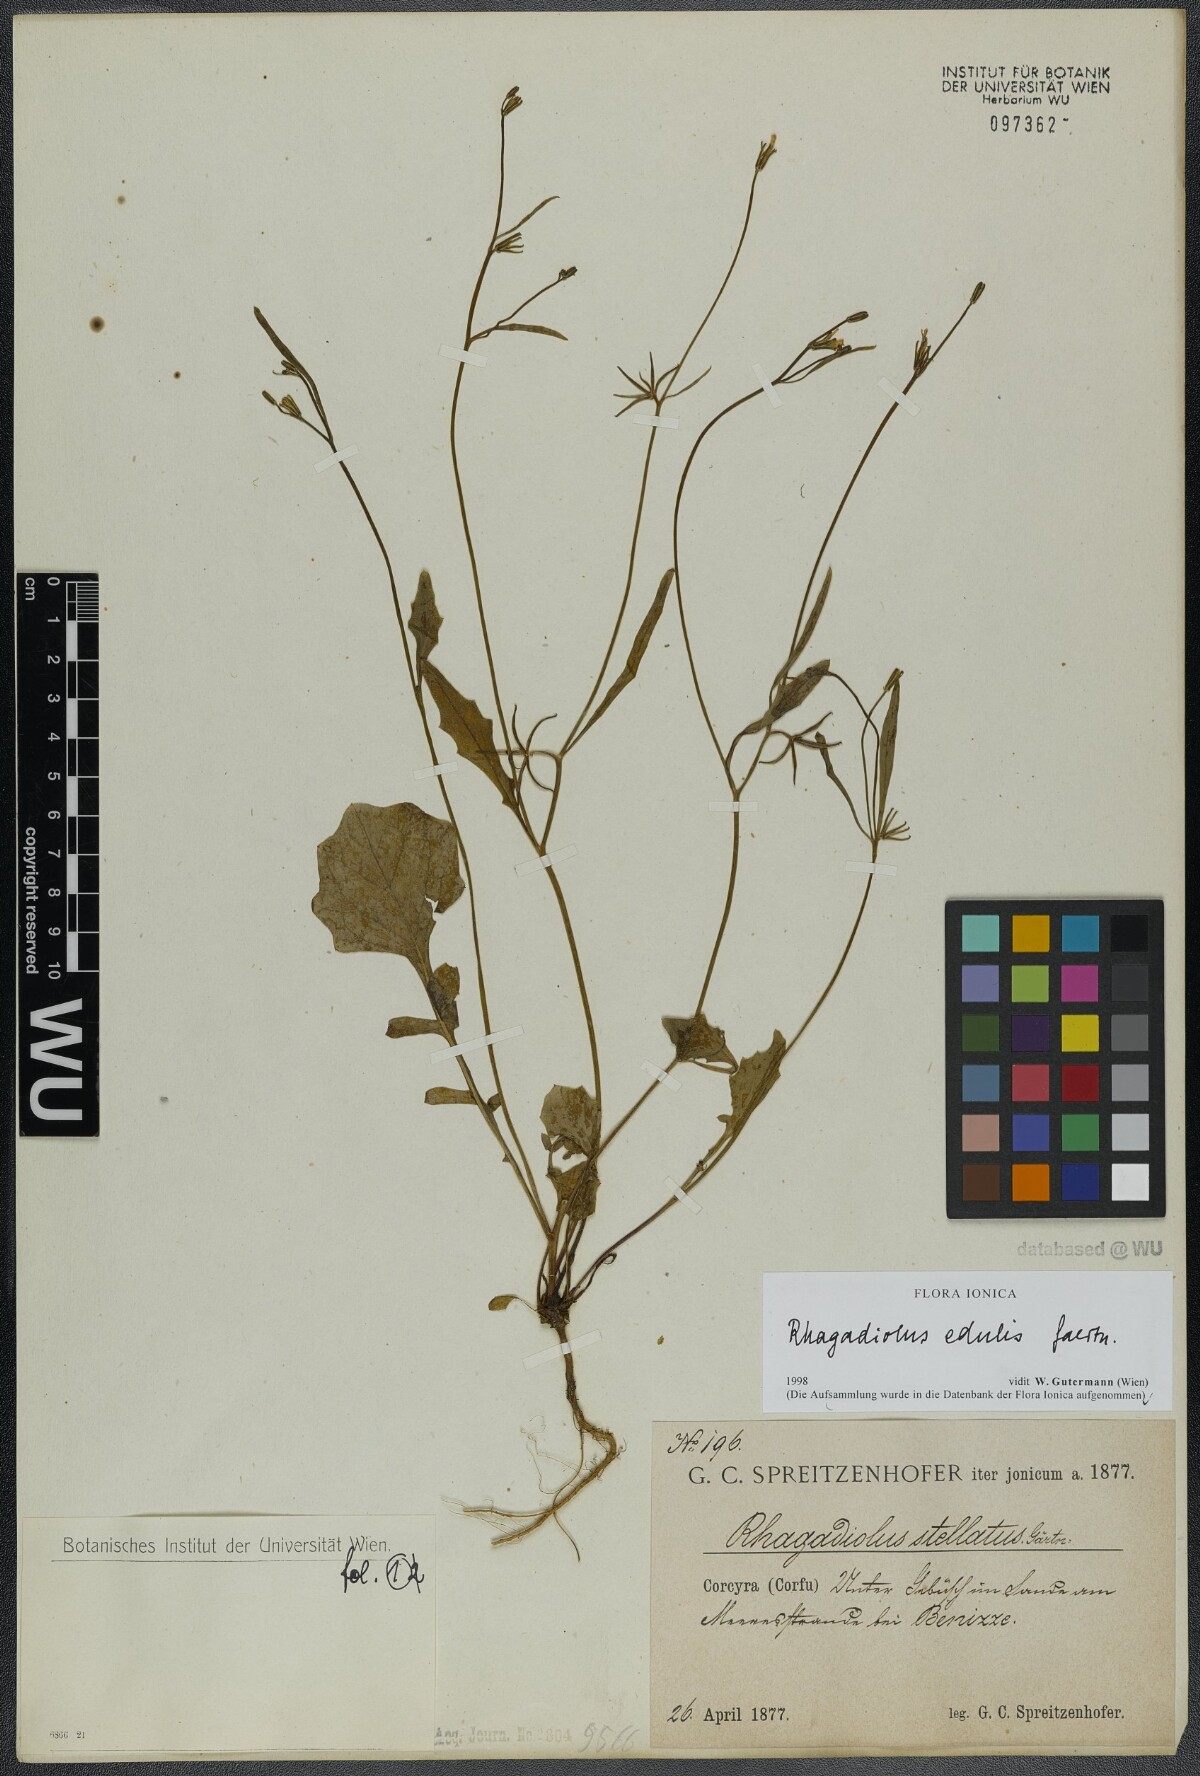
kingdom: Plantae
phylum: Tracheophyta
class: Magnoliopsida
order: Asterales
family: Asteraceae
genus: Rhagadiolus
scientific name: Rhagadiolus edulis
